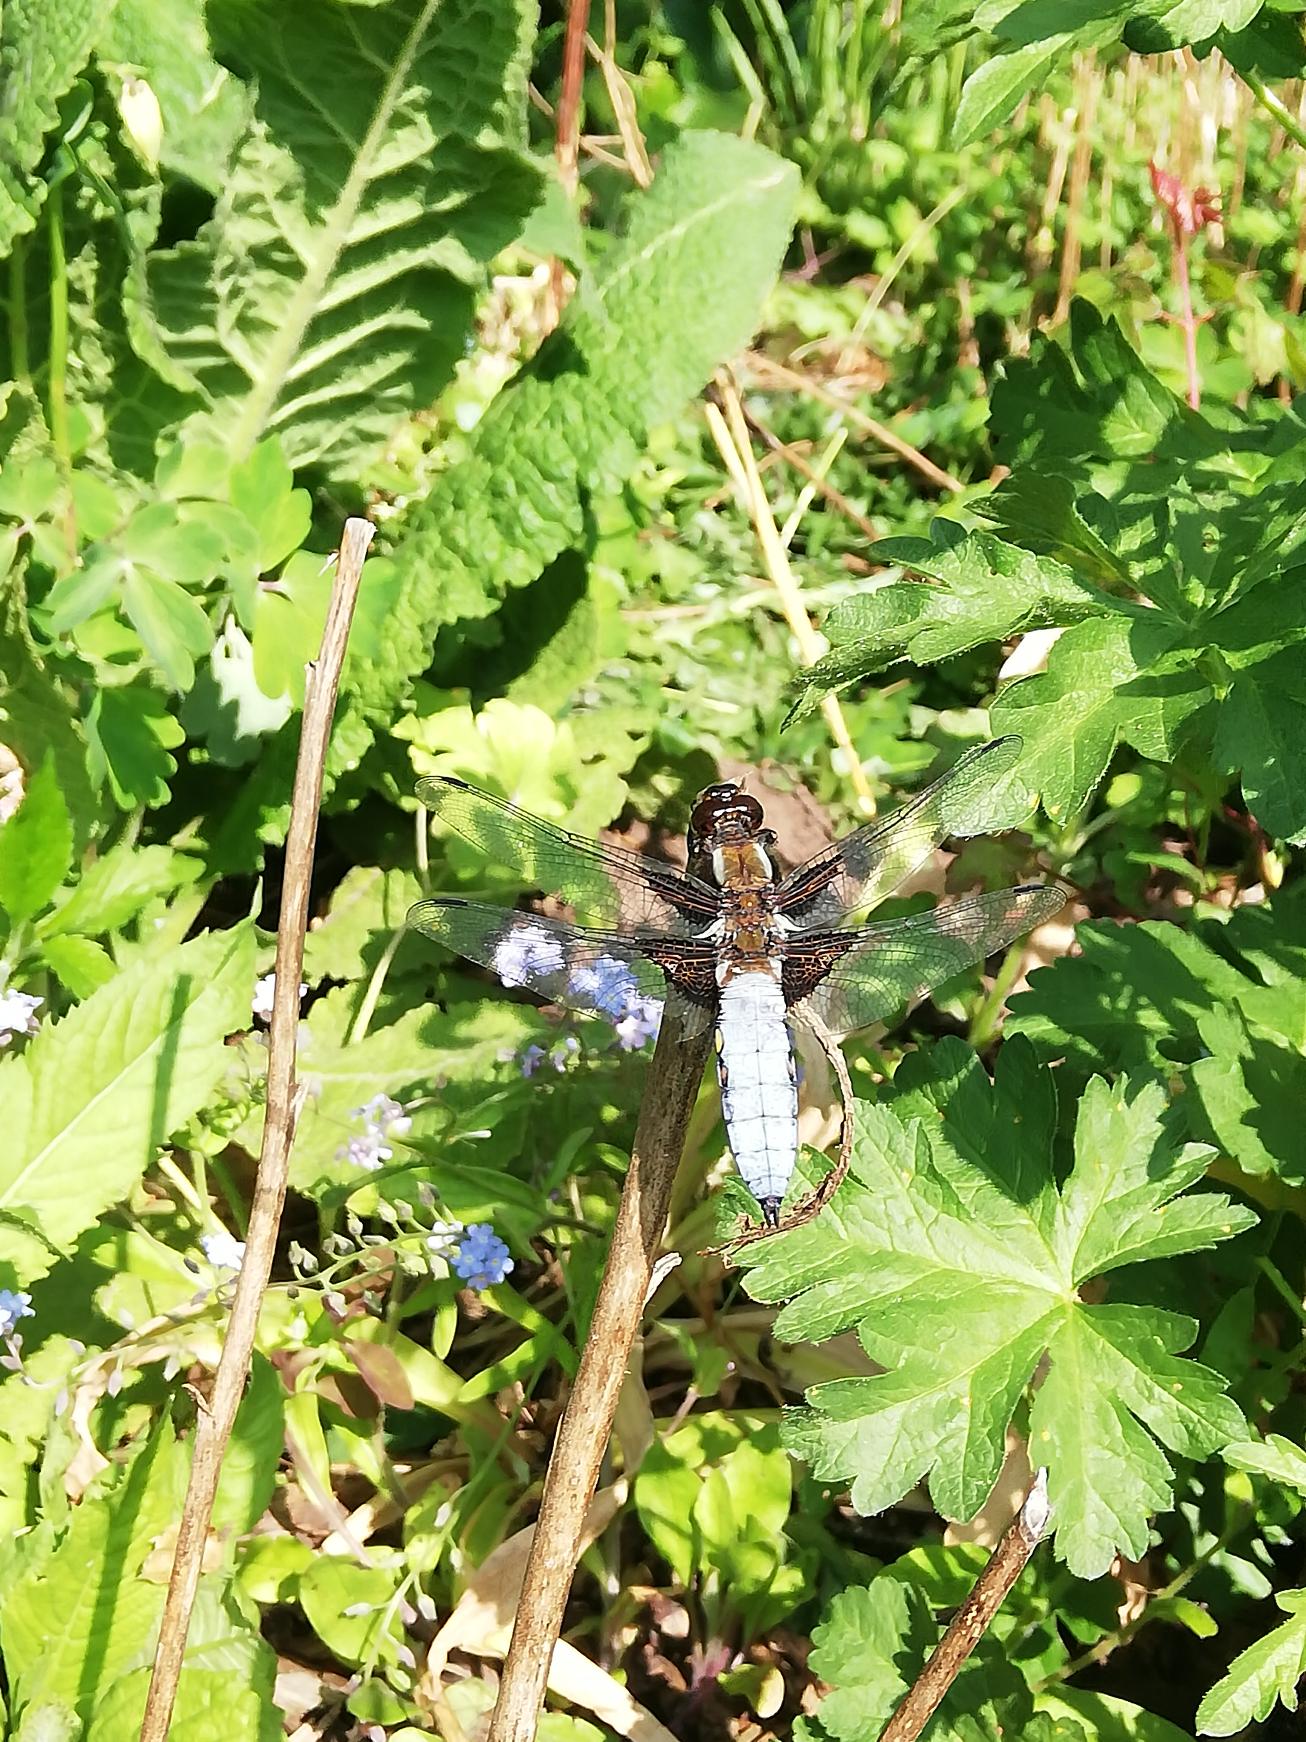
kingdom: Animalia
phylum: Arthropoda
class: Insecta
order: Odonata
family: Libellulidae
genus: Libellula
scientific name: Libellula depressa
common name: Blå libel
